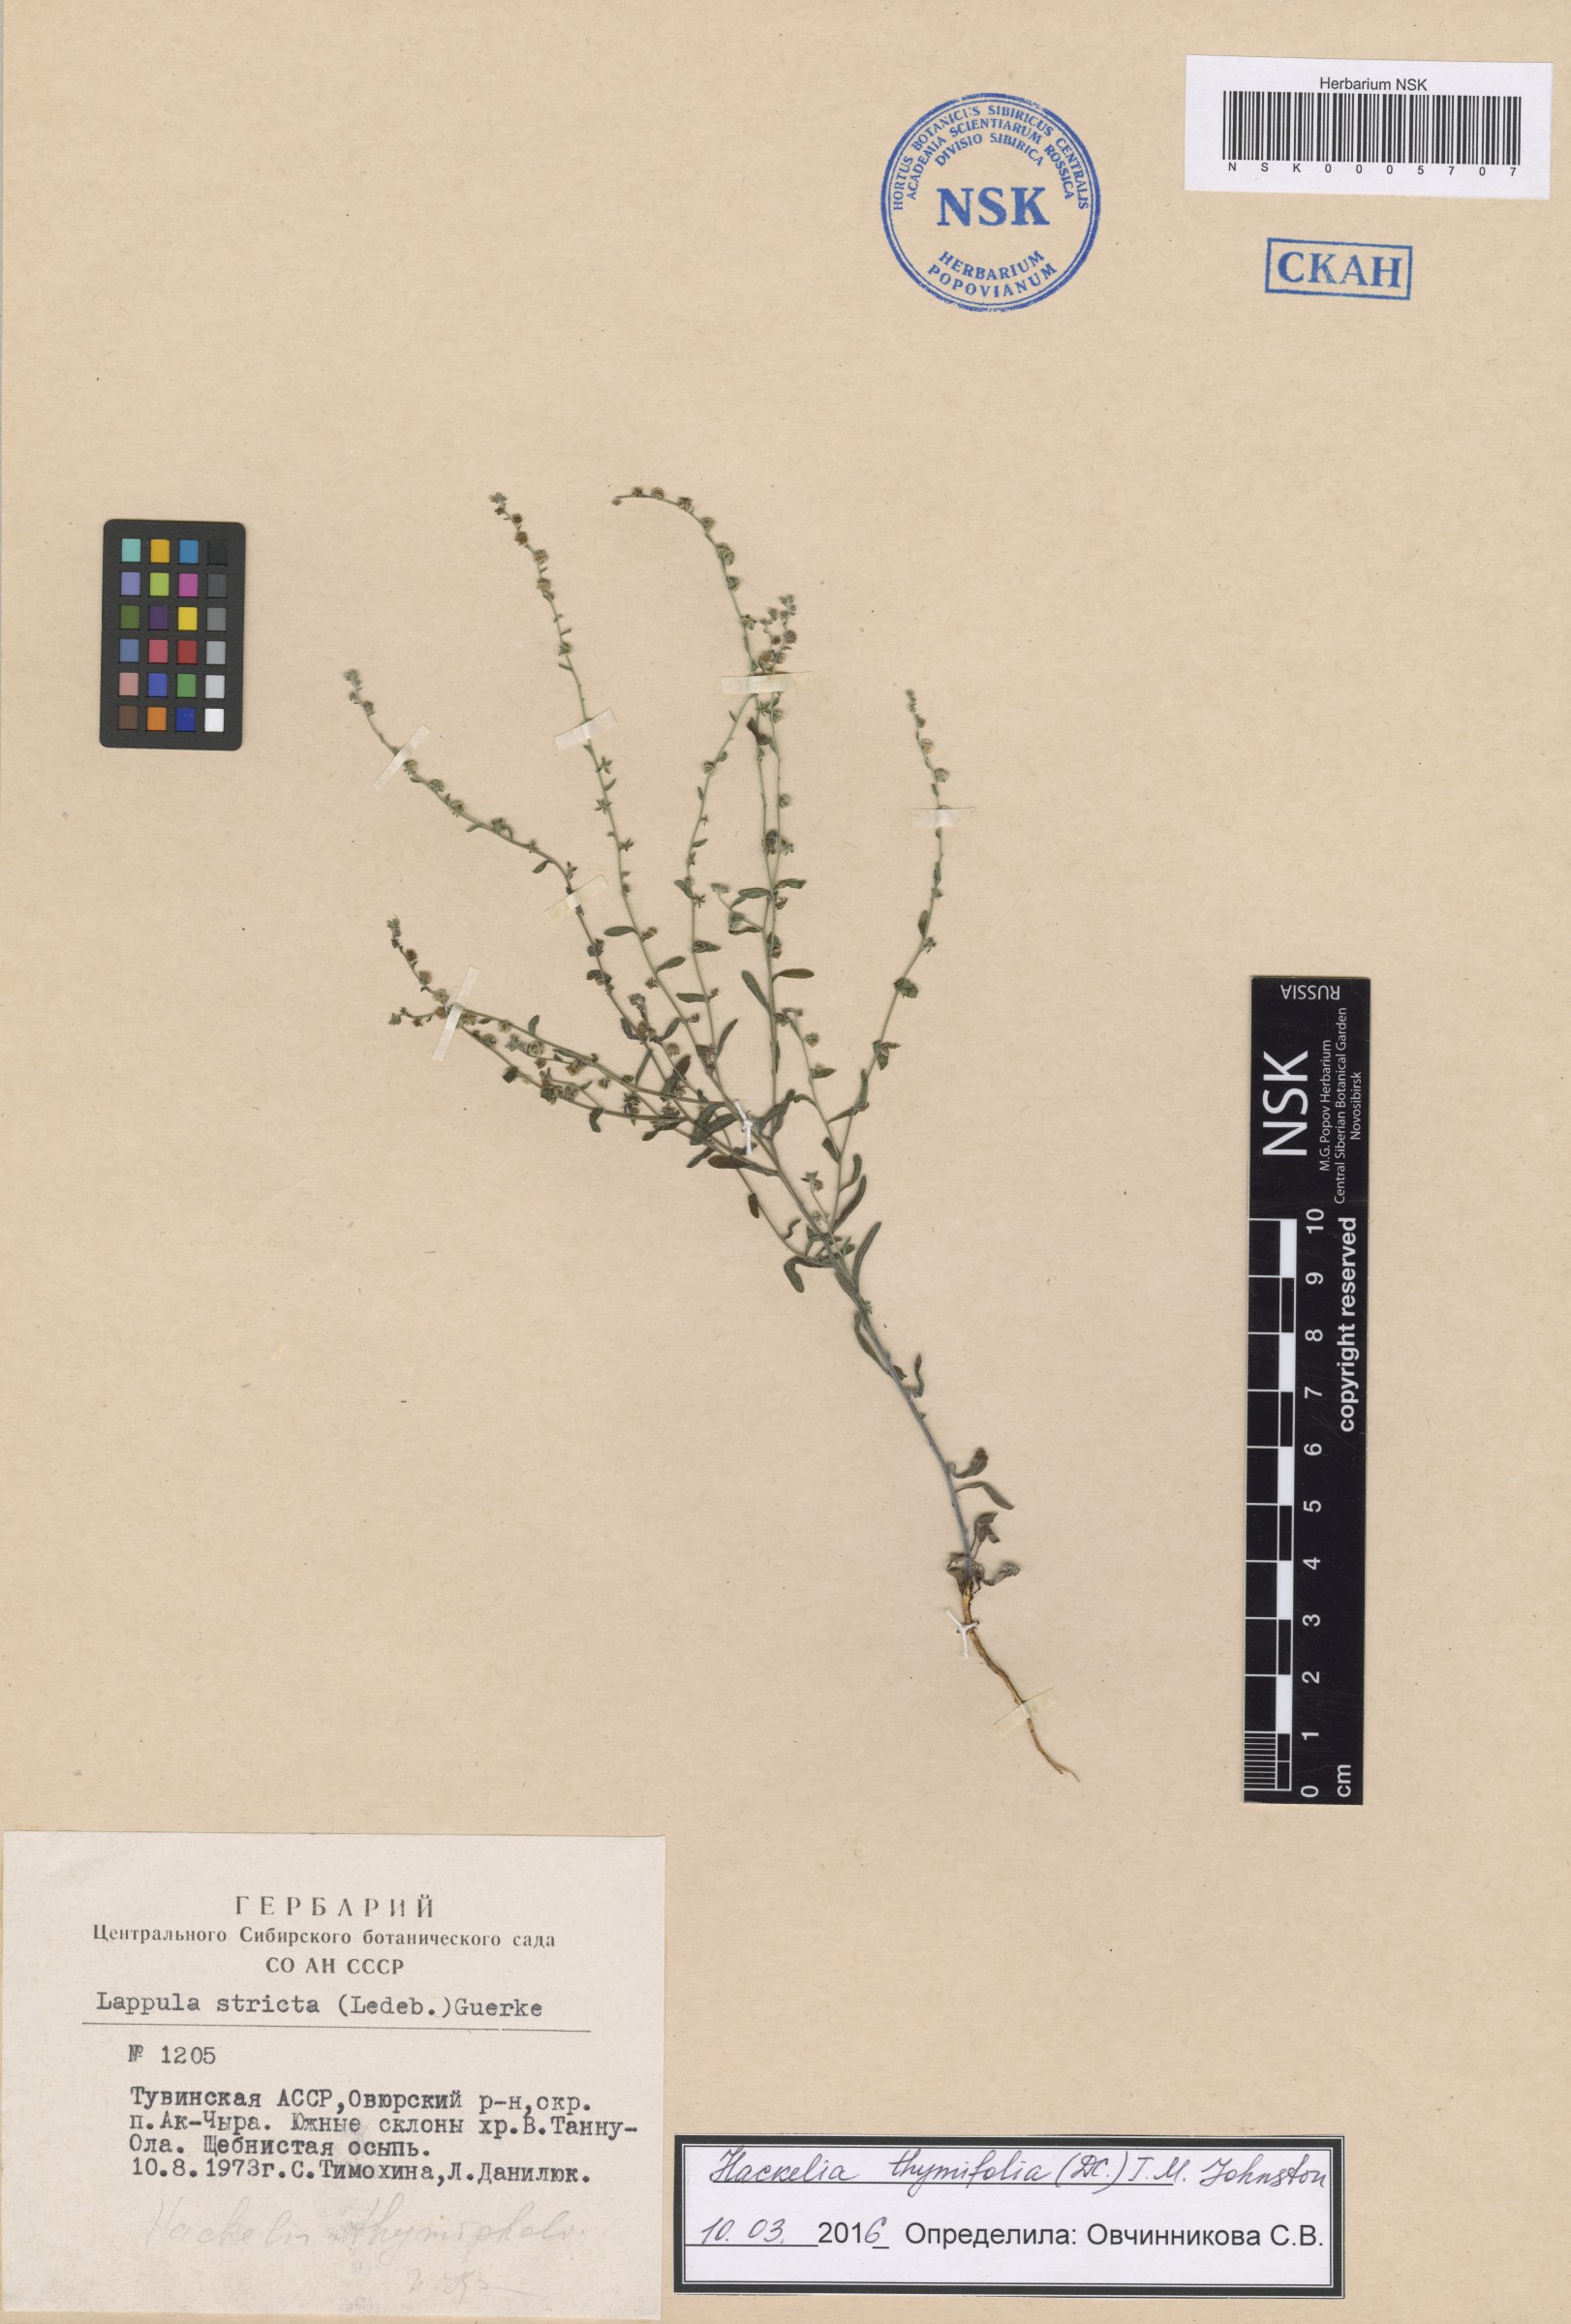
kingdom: Plantae
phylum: Tracheophyta
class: Magnoliopsida
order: Boraginales
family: Boraginaceae
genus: Eritrichium
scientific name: Eritrichium thymifolium
